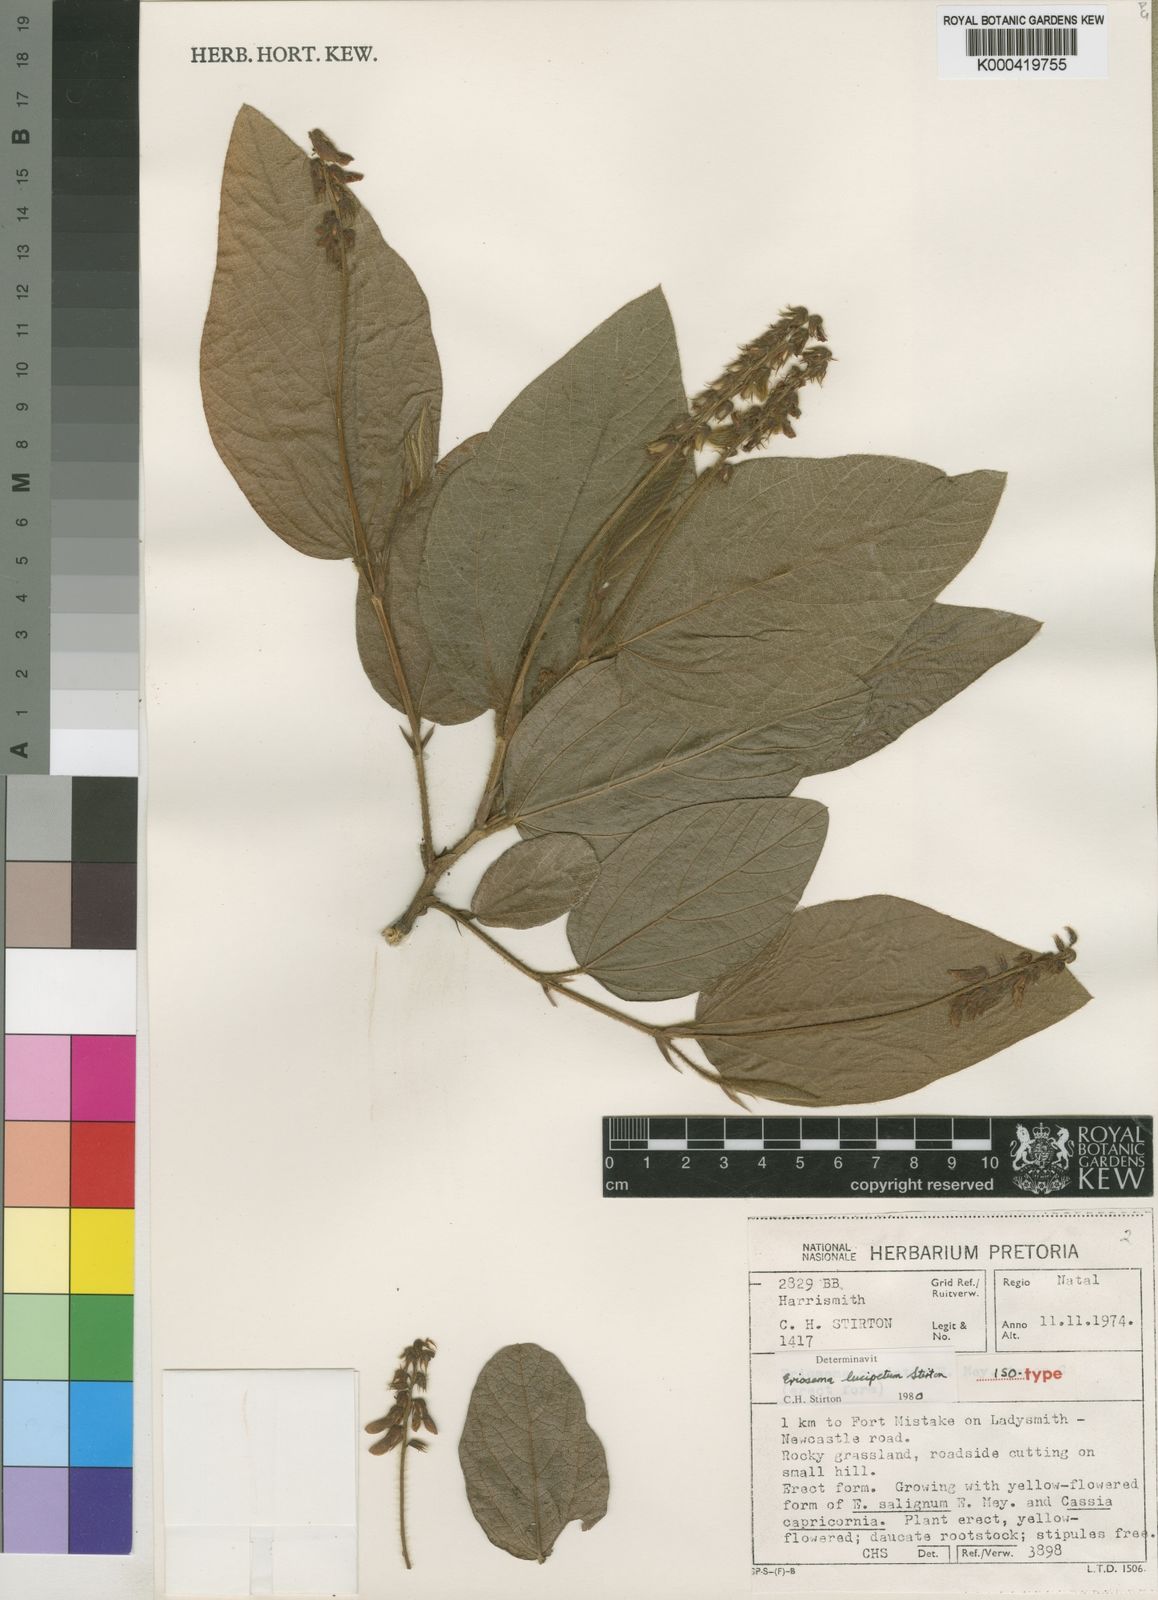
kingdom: Plantae
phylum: Tracheophyta
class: Magnoliopsida
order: Fabales
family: Fabaceae
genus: Eriosema
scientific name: Eriosema lucipetum
